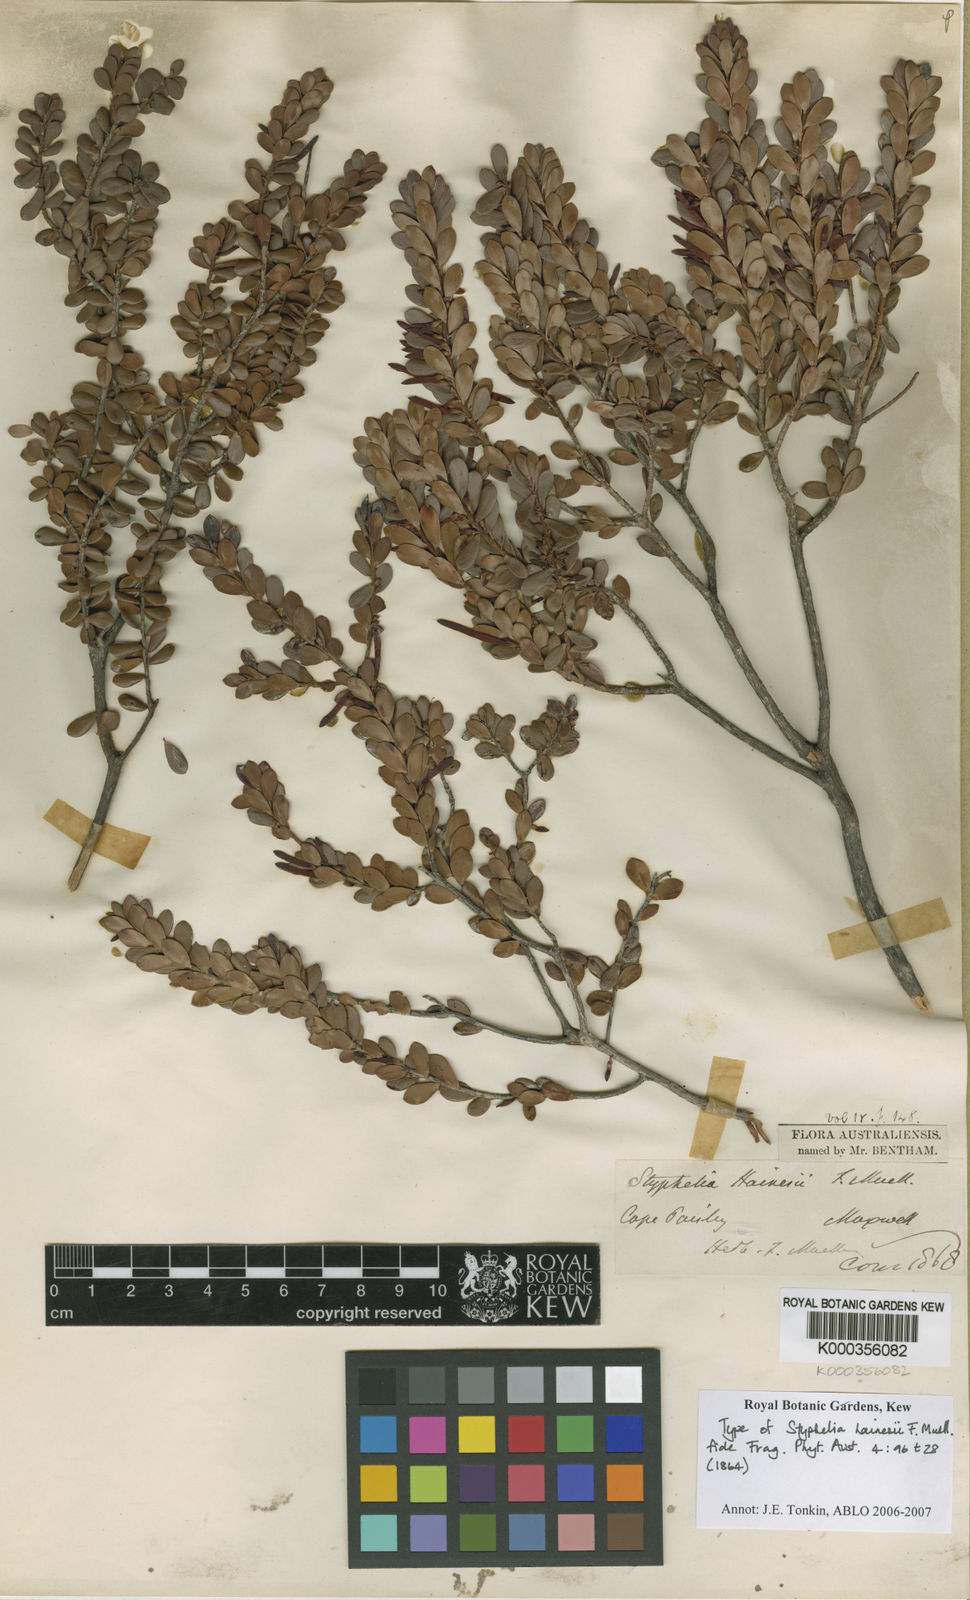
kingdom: Plantae
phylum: Tracheophyta
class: Magnoliopsida
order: Ericales
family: Ericaceae
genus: Styphelia
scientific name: Styphelia hainesii
